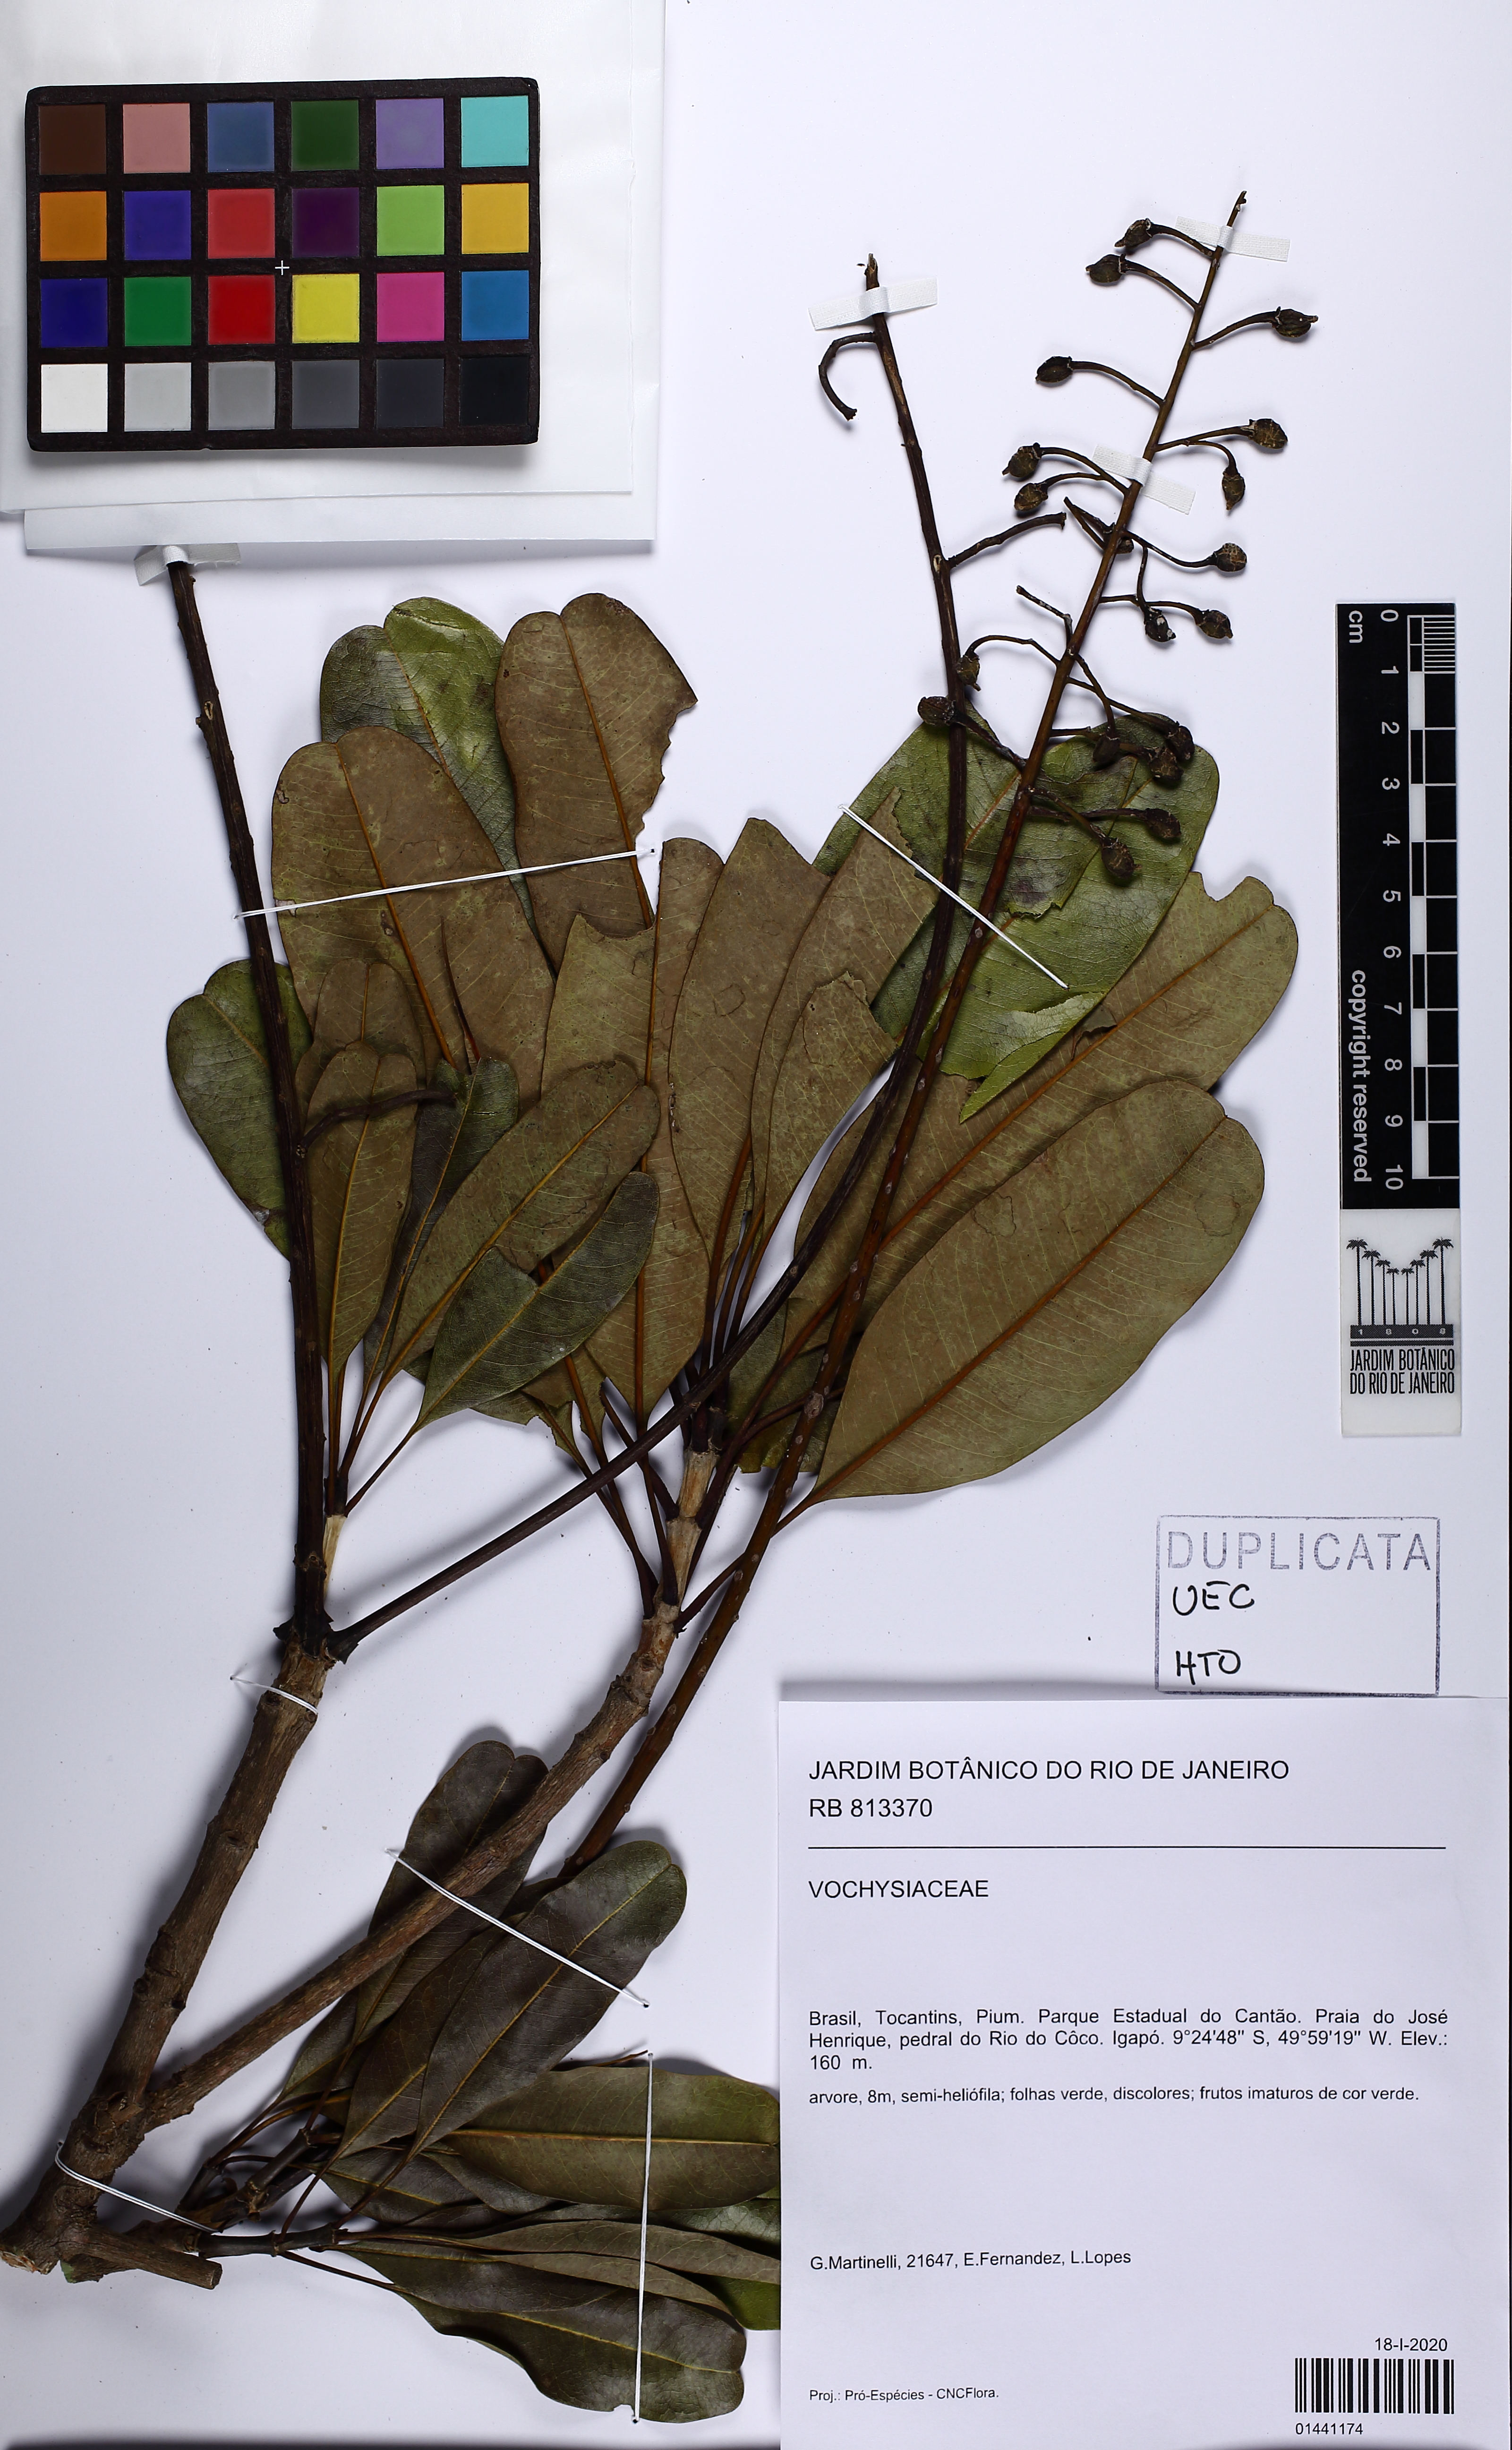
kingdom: Plantae
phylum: Tracheophyta
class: Magnoliopsida
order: Myrtales
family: Vochysiaceae
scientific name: Vochysiaceae
